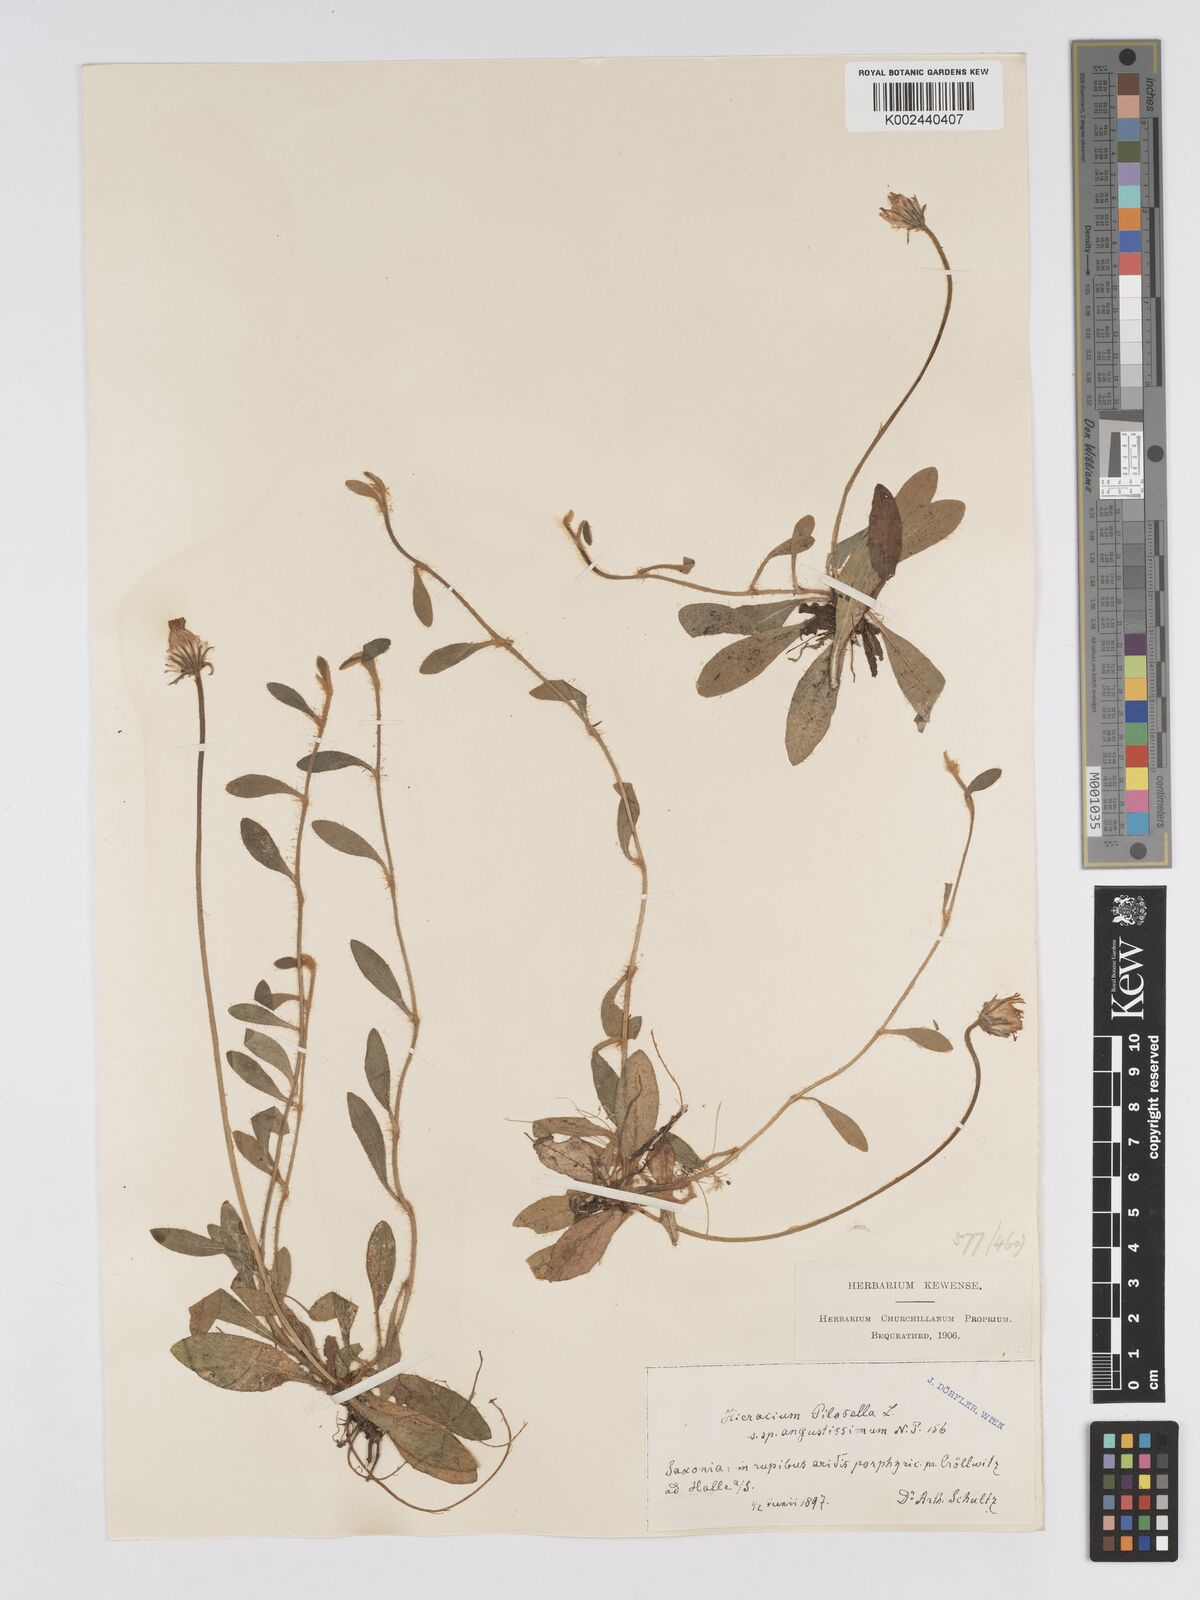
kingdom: Plantae
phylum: Tracheophyta
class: Magnoliopsida
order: Asterales
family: Asteraceae
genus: Pilosella
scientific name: Pilosella officinarum
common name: Mouse-ear hawkweed
